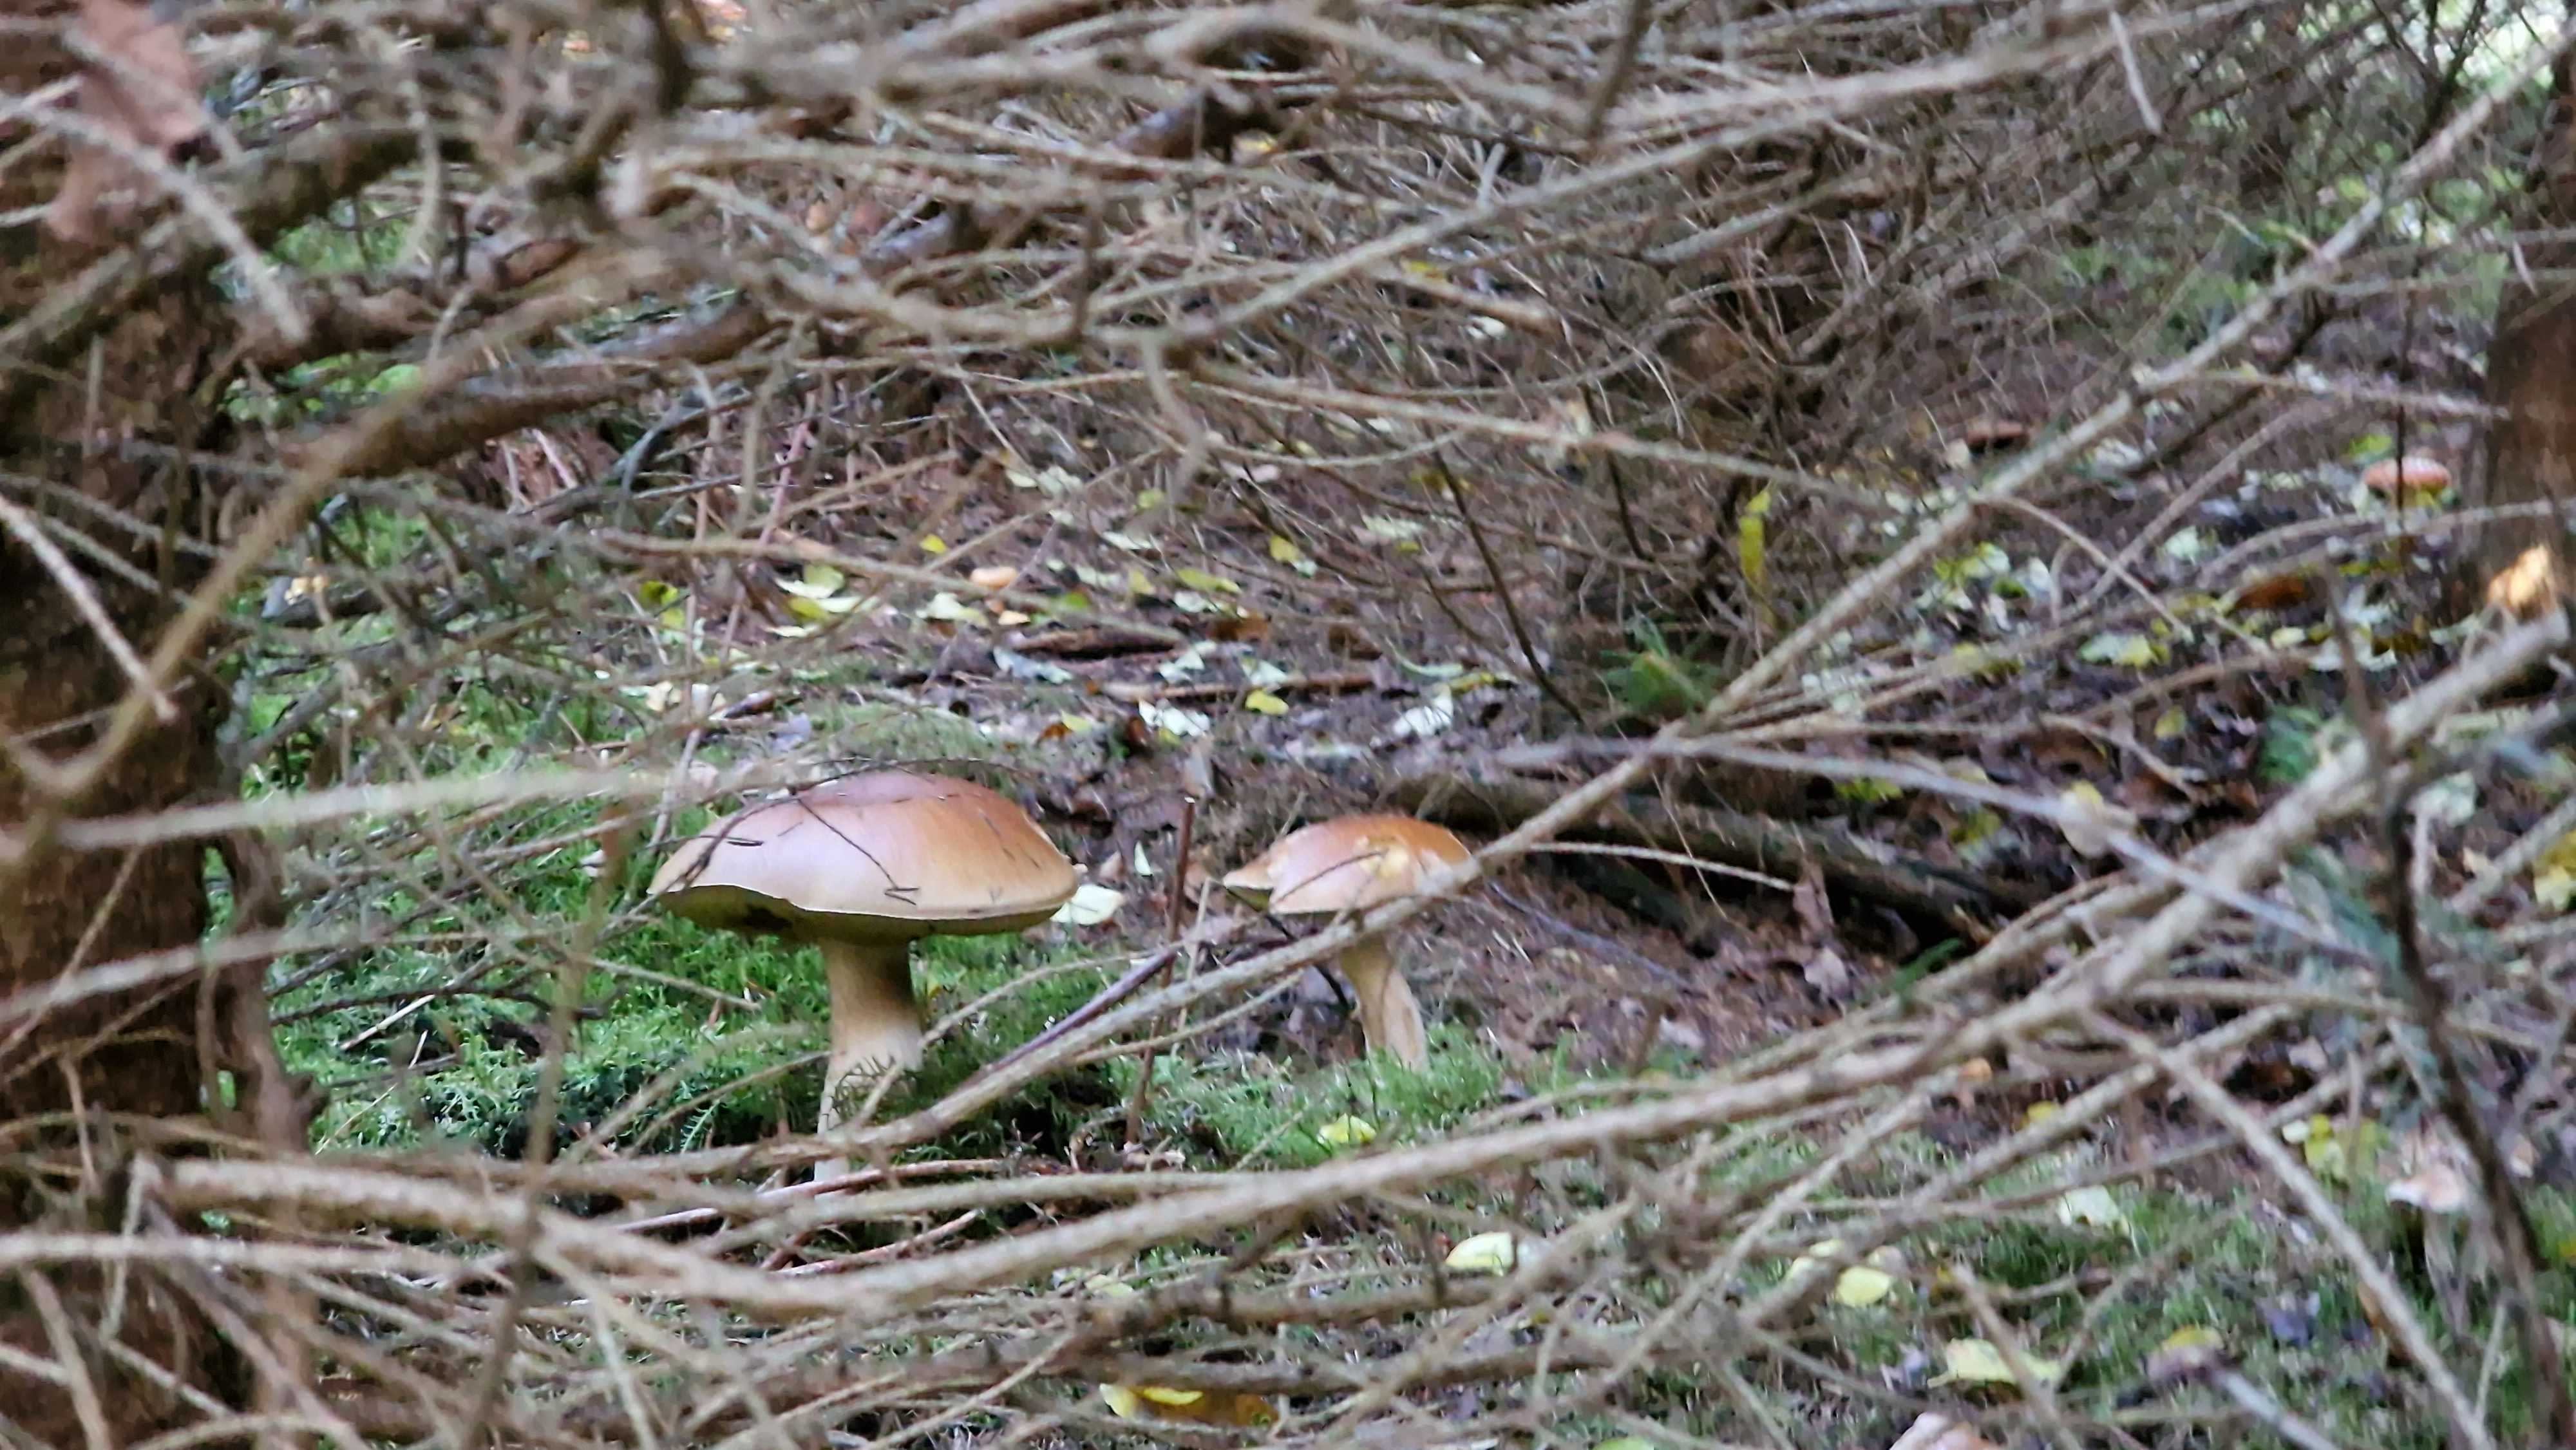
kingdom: Fungi
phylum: Basidiomycota
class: Agaricomycetes
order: Boletales
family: Boletaceae
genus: Boletus
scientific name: Boletus edulis
